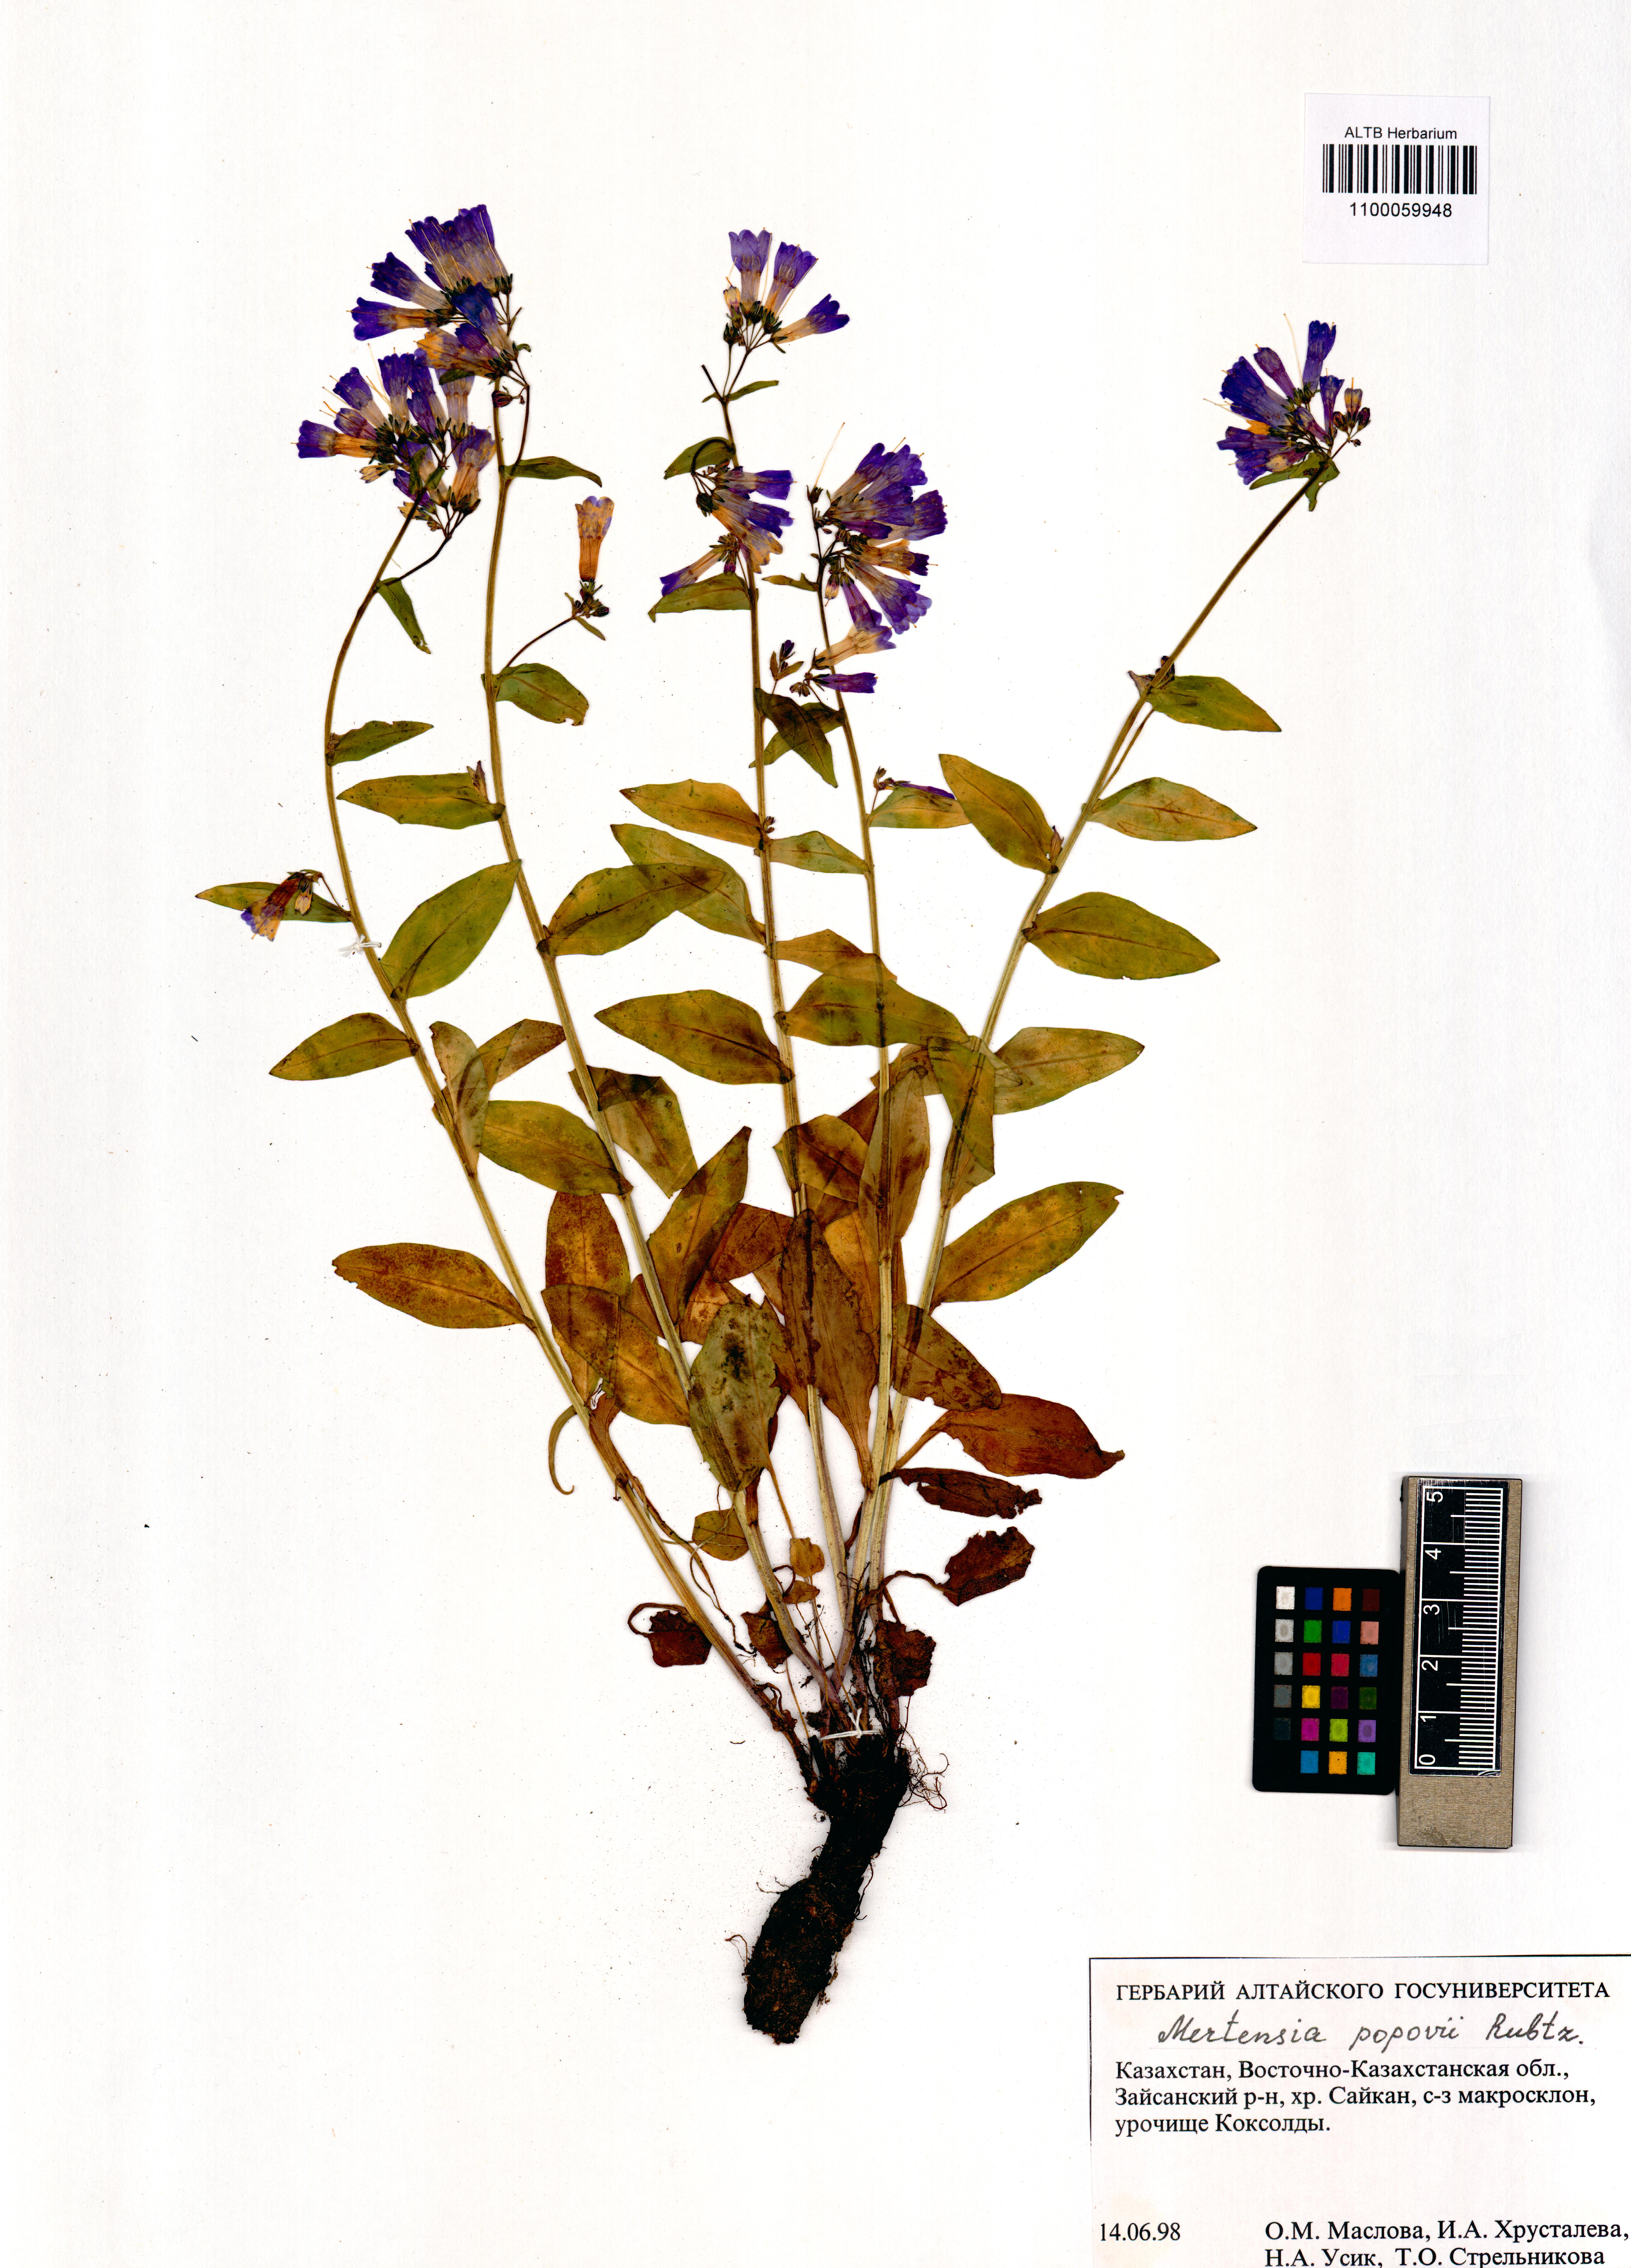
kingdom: Plantae
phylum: Tracheophyta
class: Magnoliopsida
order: Boraginales
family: Boraginaceae
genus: Mertensia
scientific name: Mertensia meyeriana
